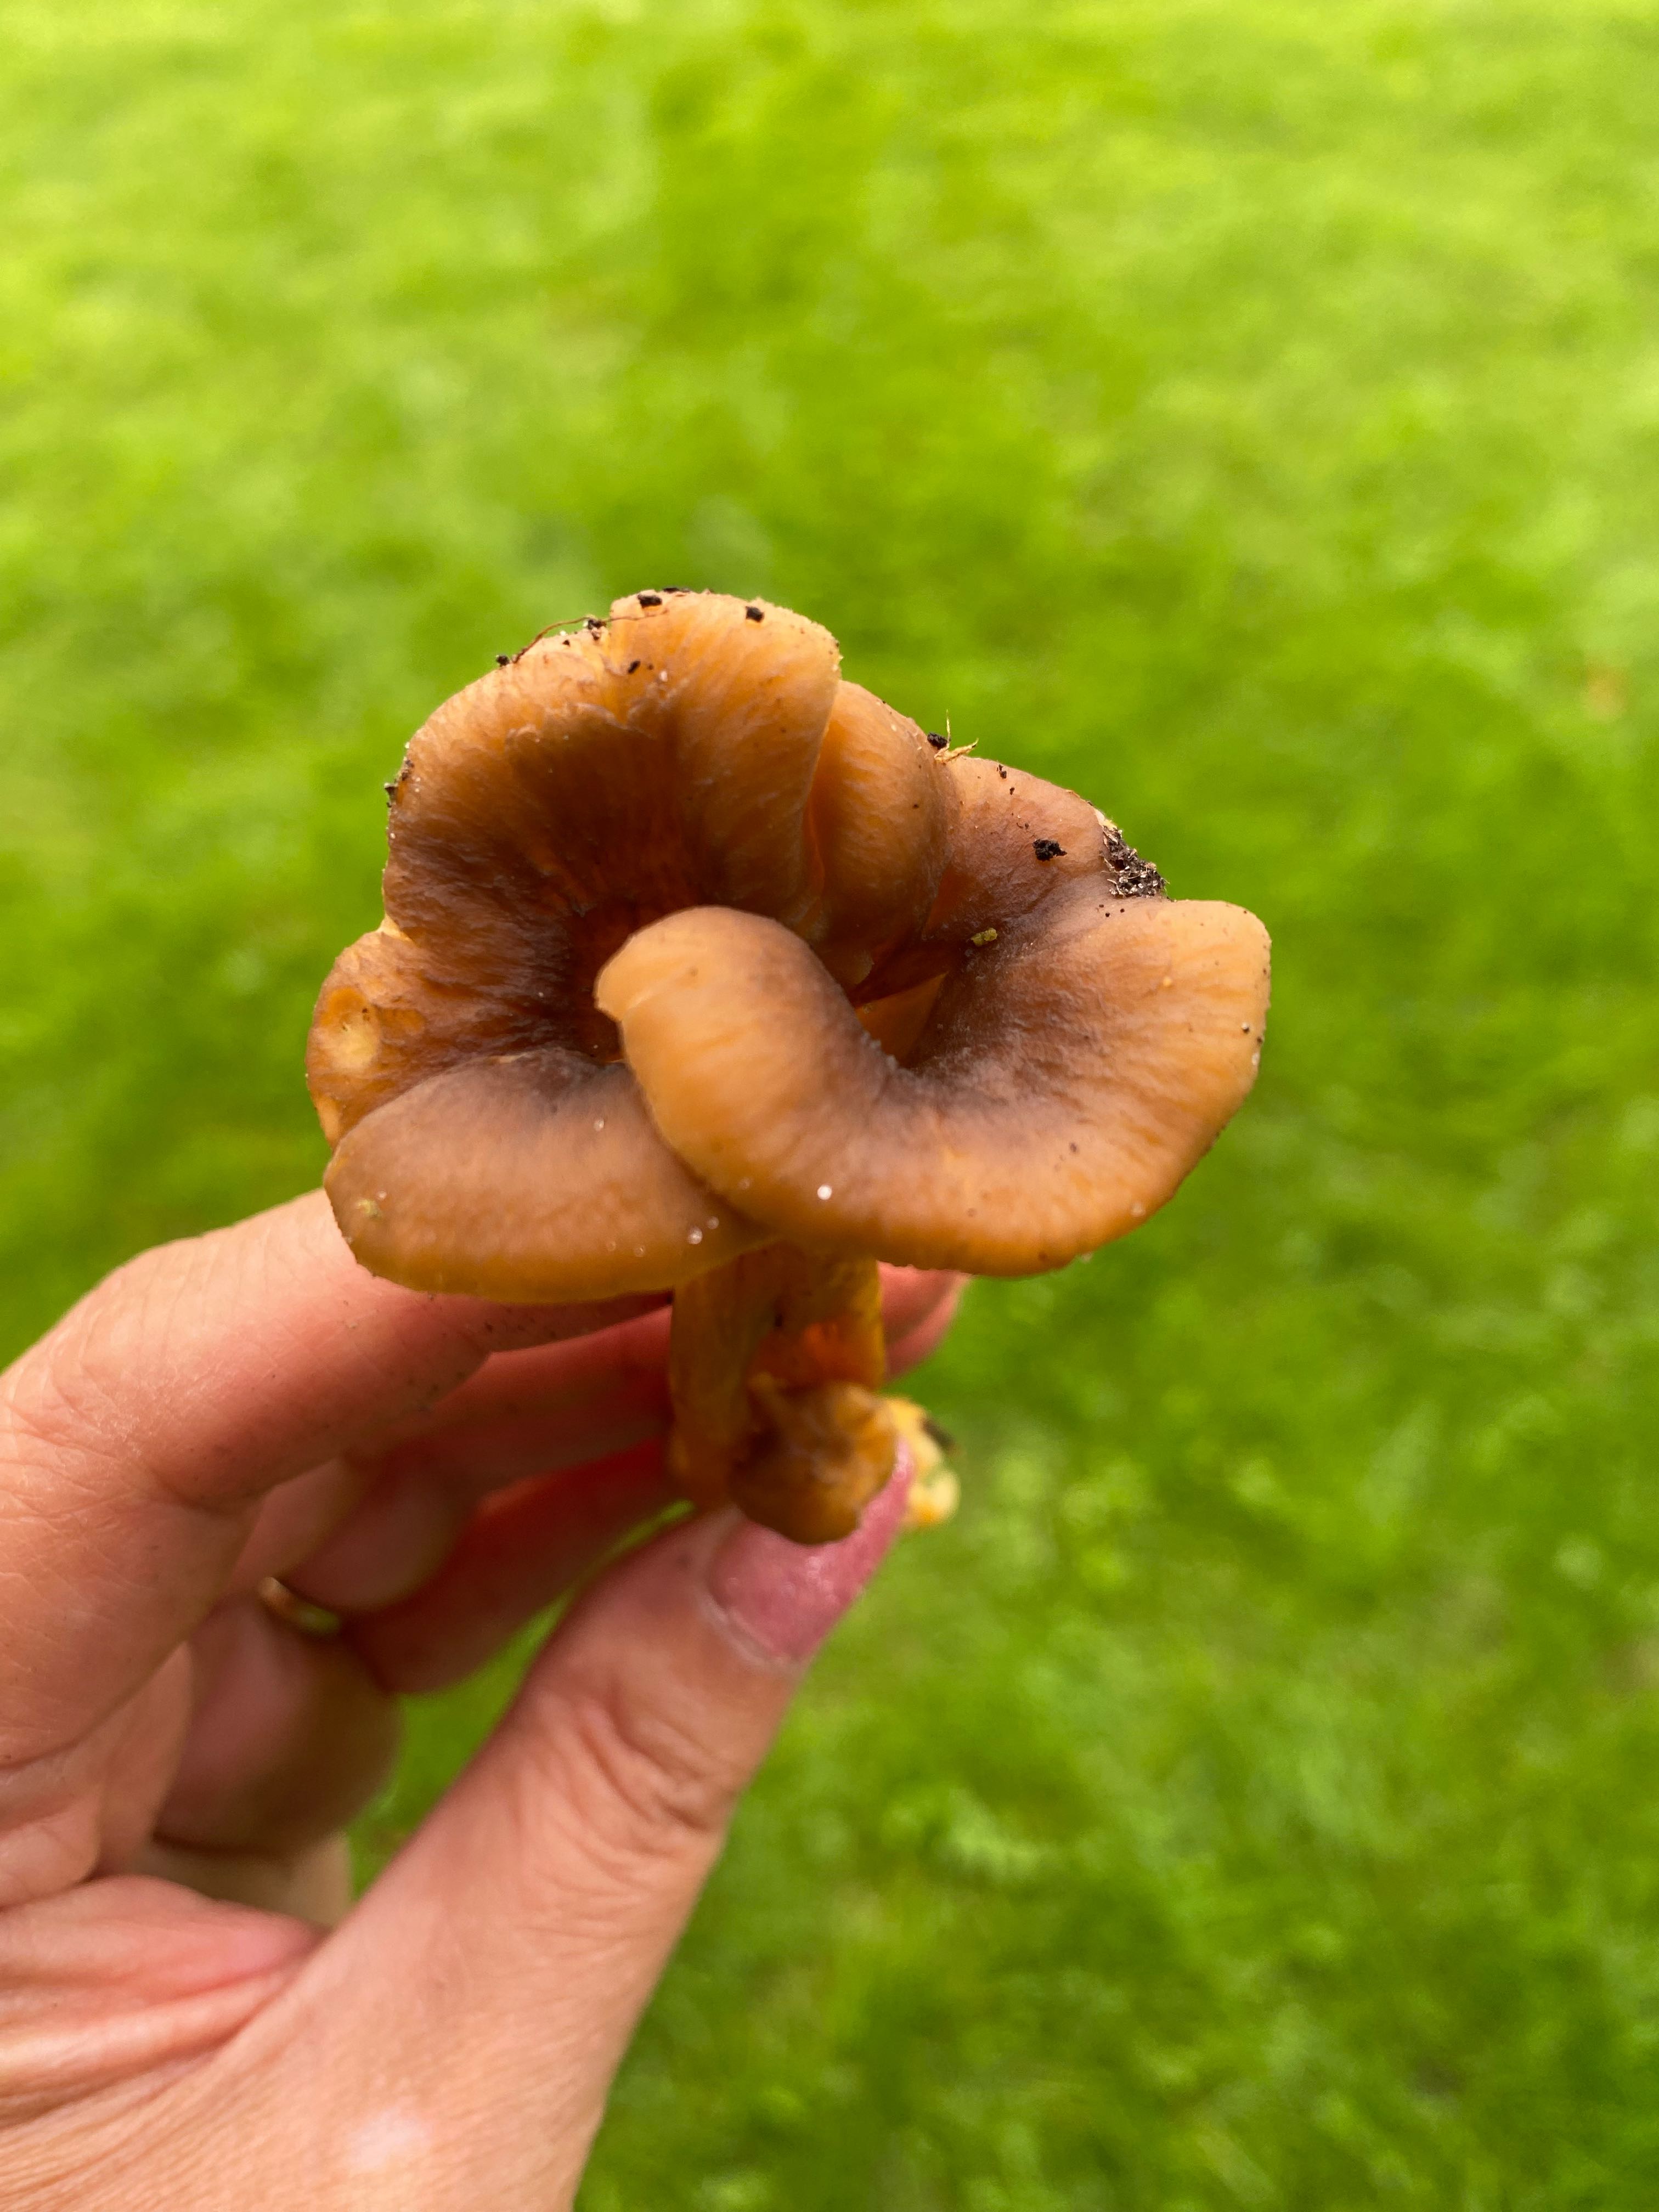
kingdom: Fungi
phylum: Basidiomycota
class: Agaricomycetes
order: Cantharellales
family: Hydnaceae
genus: Craterellus
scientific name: Craterellus tubaeformis
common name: tragt-kantarel
